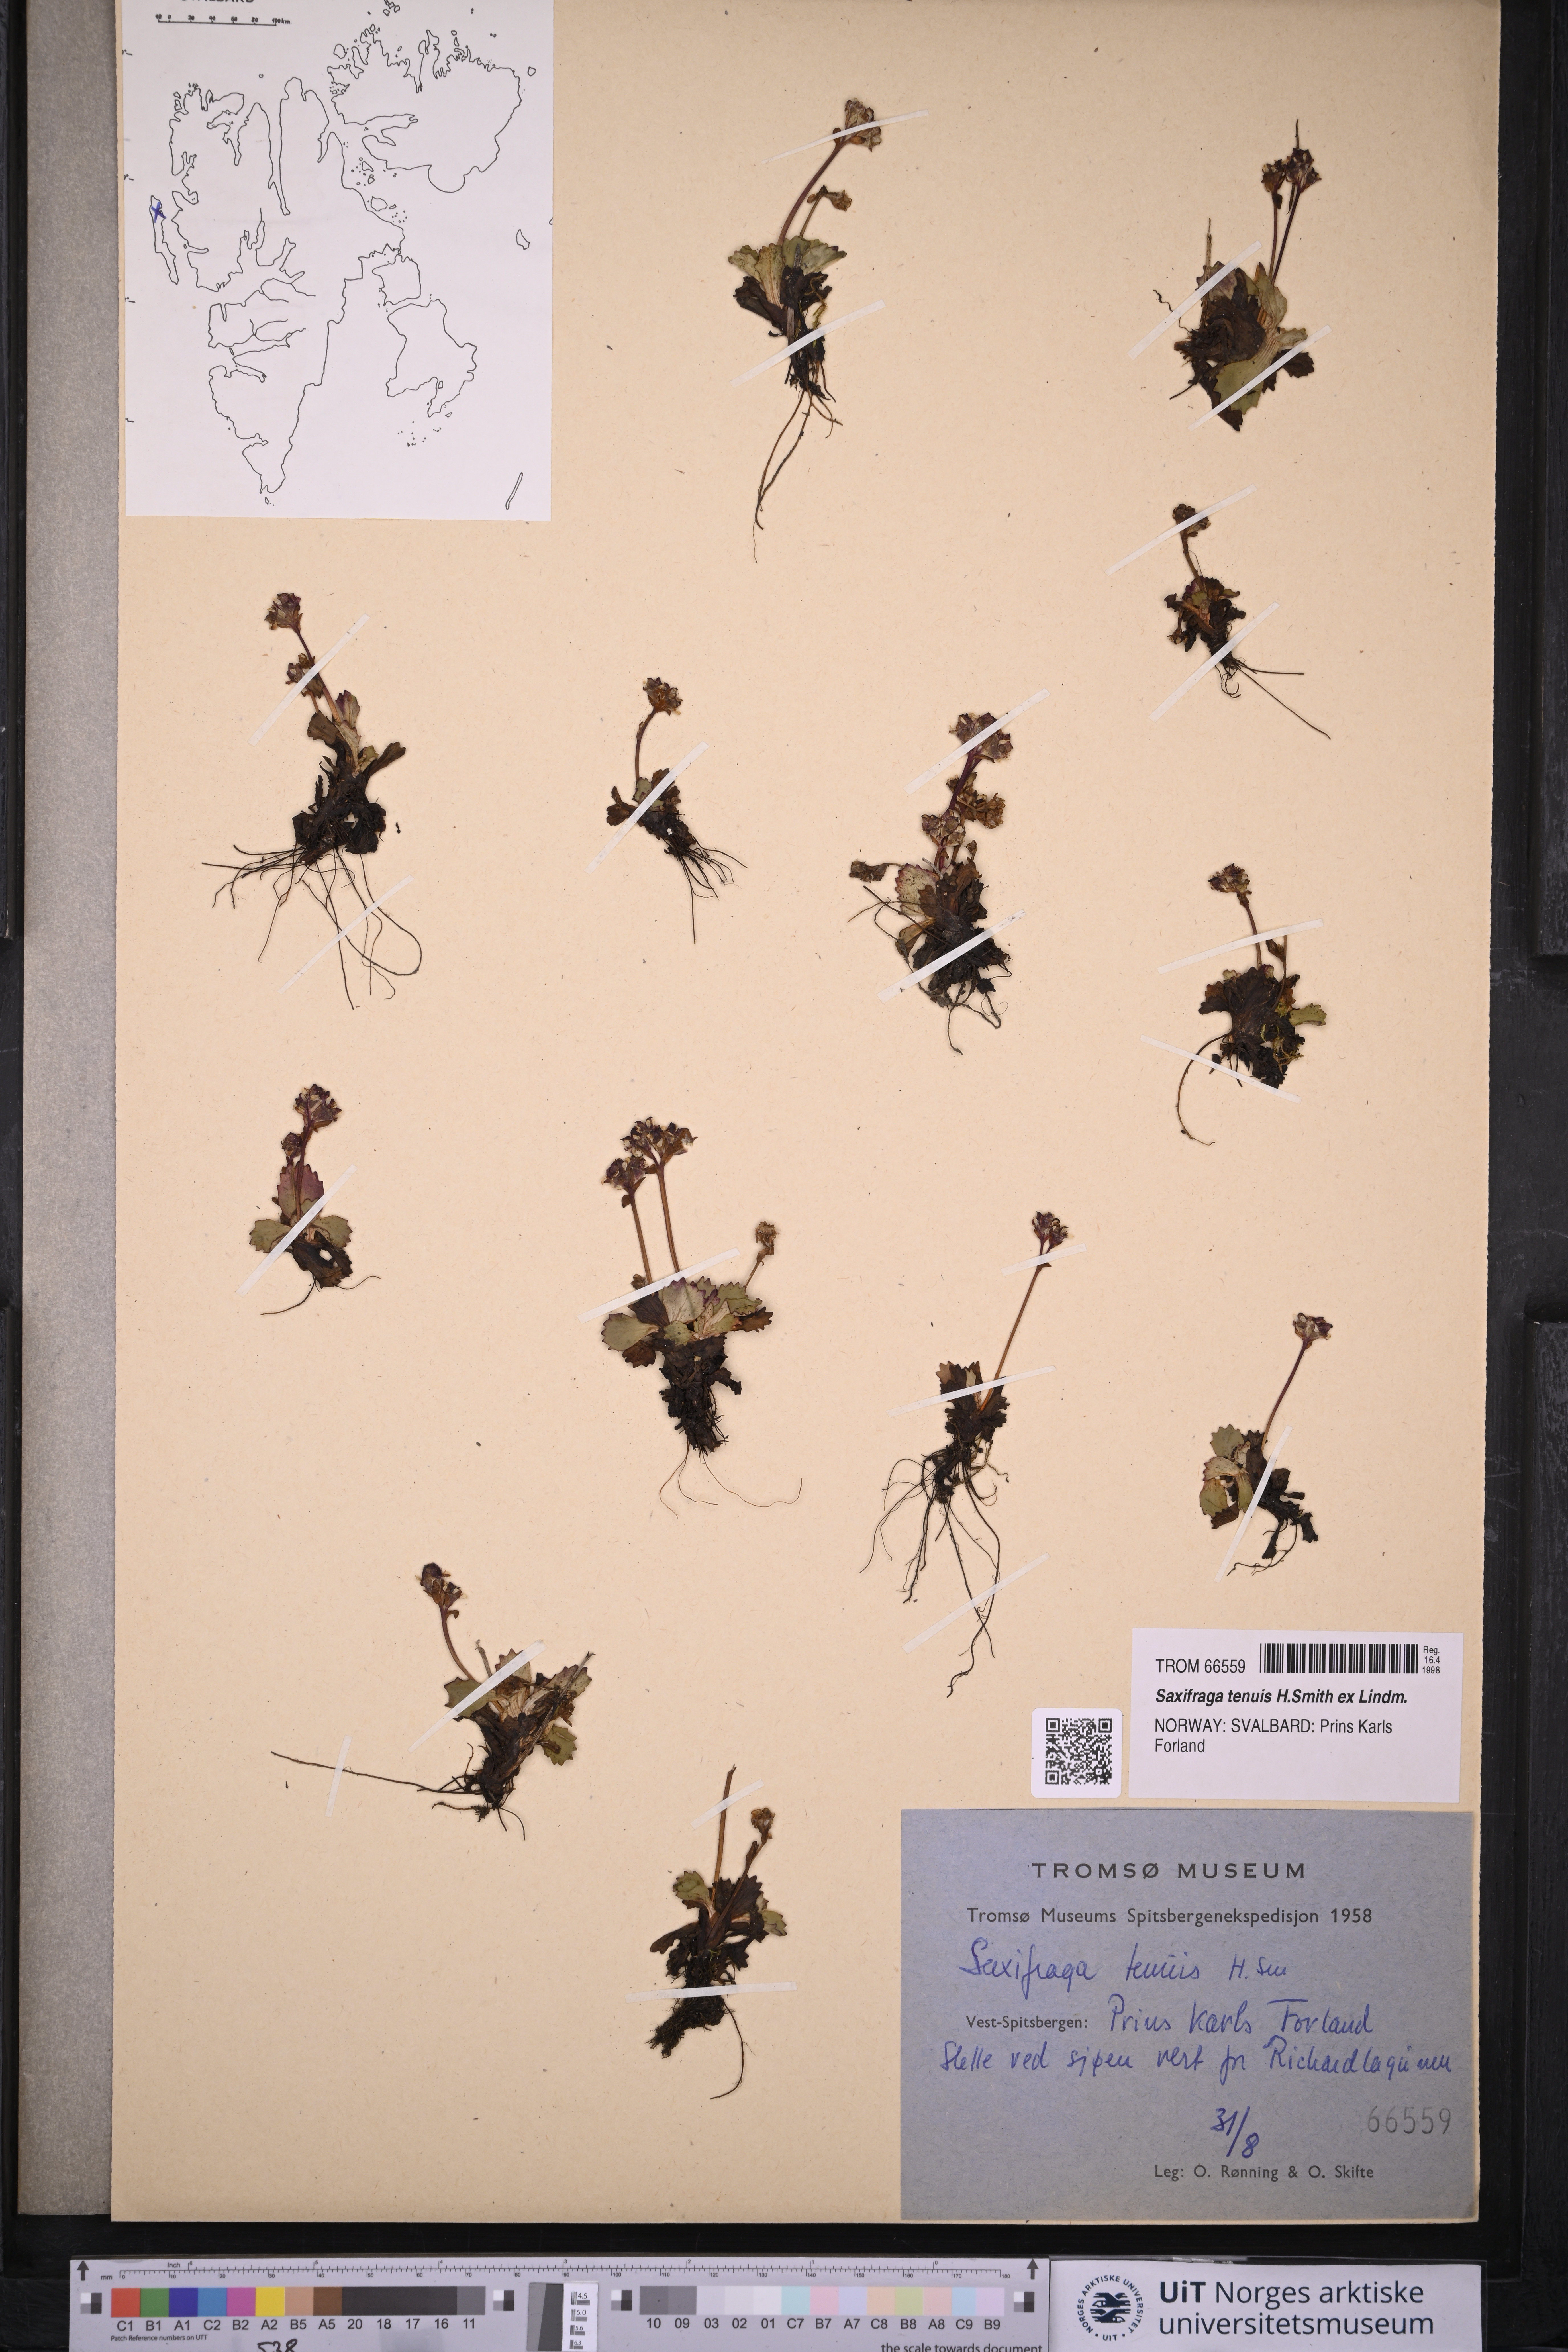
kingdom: Plantae
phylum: Tracheophyta
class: Magnoliopsida
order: Saxifragales
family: Saxifragaceae
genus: Micranthes
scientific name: Micranthes tenuis
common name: Ottertail pass saxifrage
